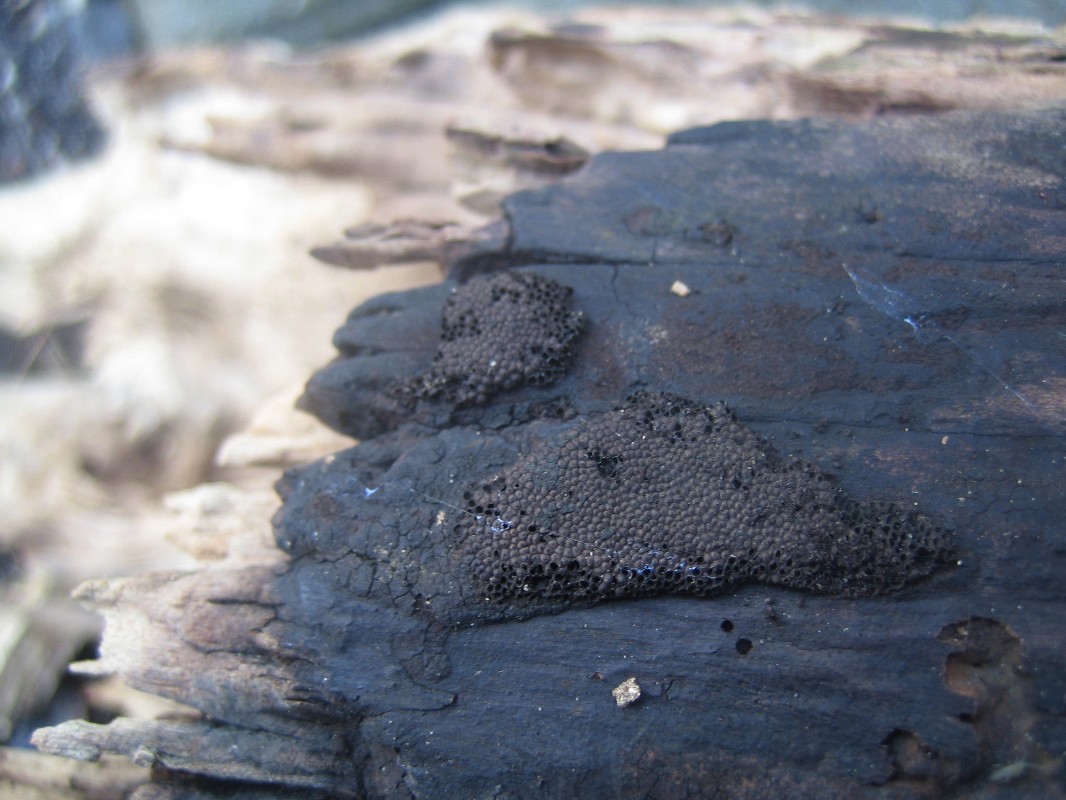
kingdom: Fungi
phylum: Ascomycota
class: Sordariomycetes
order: Xylariales
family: Hypoxylaceae
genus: Hypoxylon
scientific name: Hypoxylon
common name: kulbær
